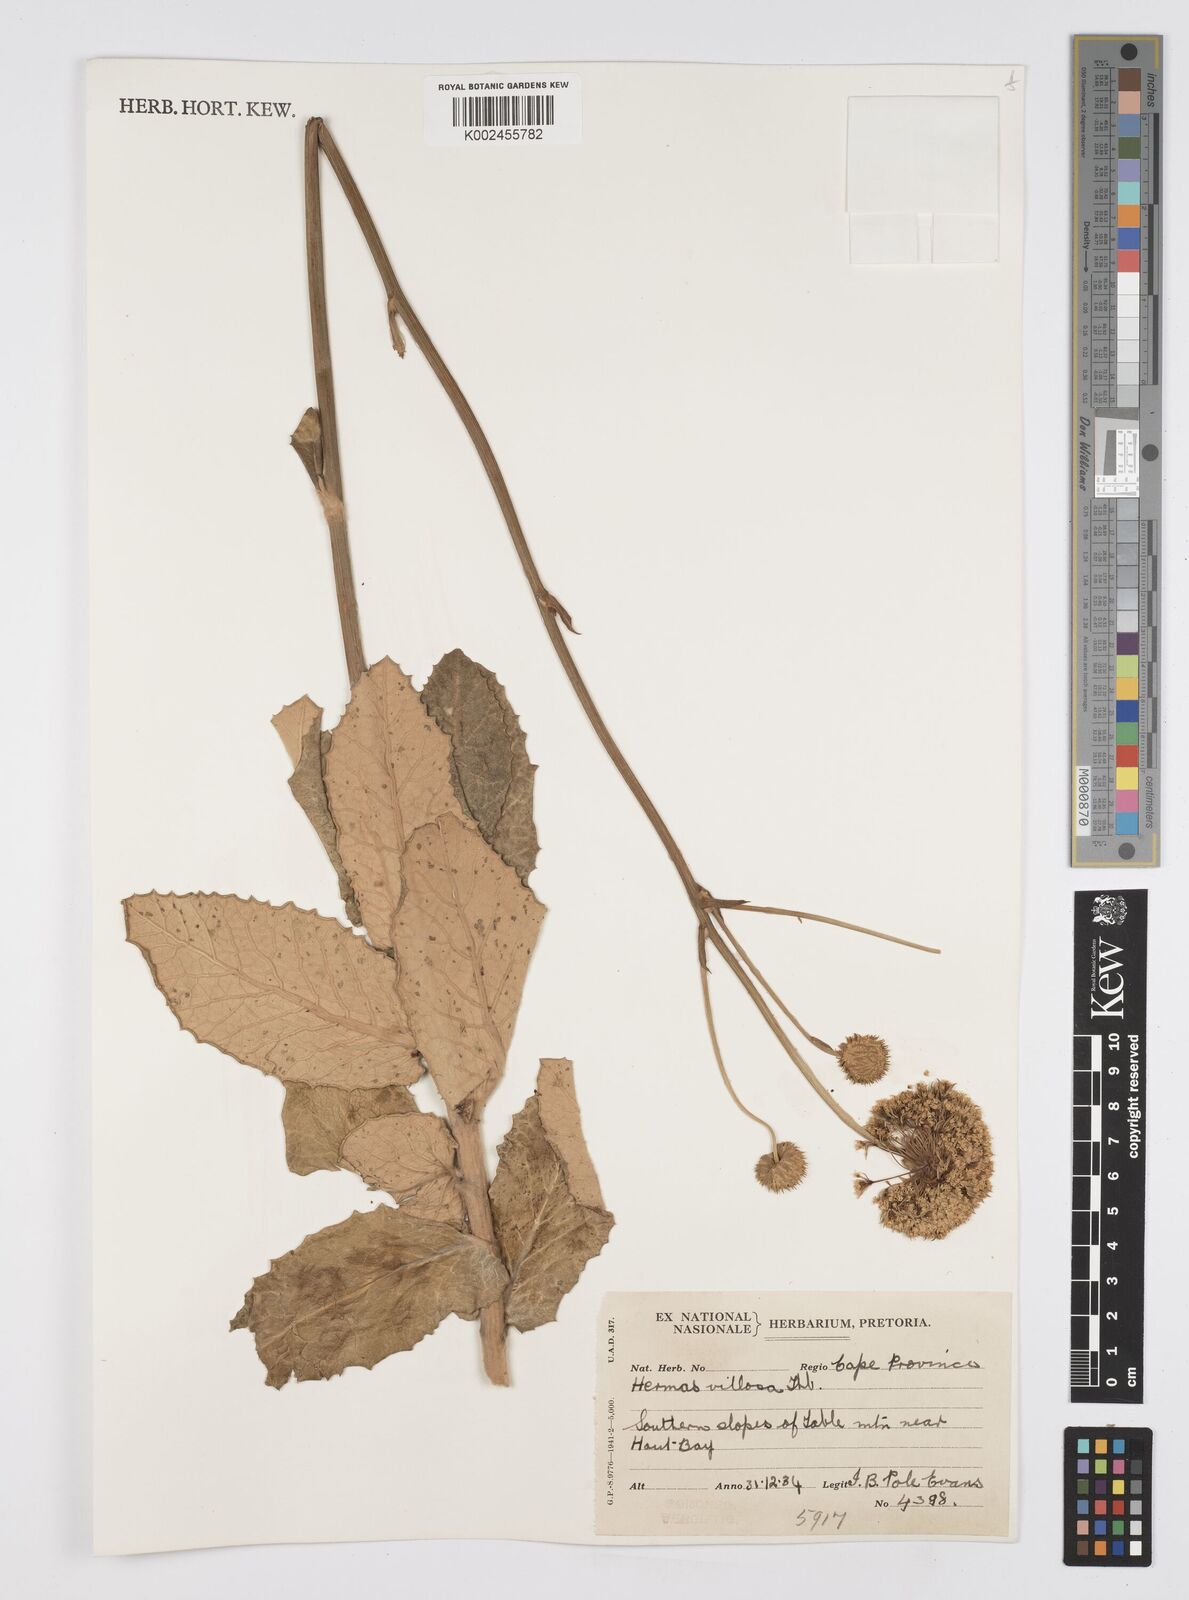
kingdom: Plantae
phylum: Tracheophyta
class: Magnoliopsida
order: Apiales
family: Apiaceae
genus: Hermas
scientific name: Hermas villosa
